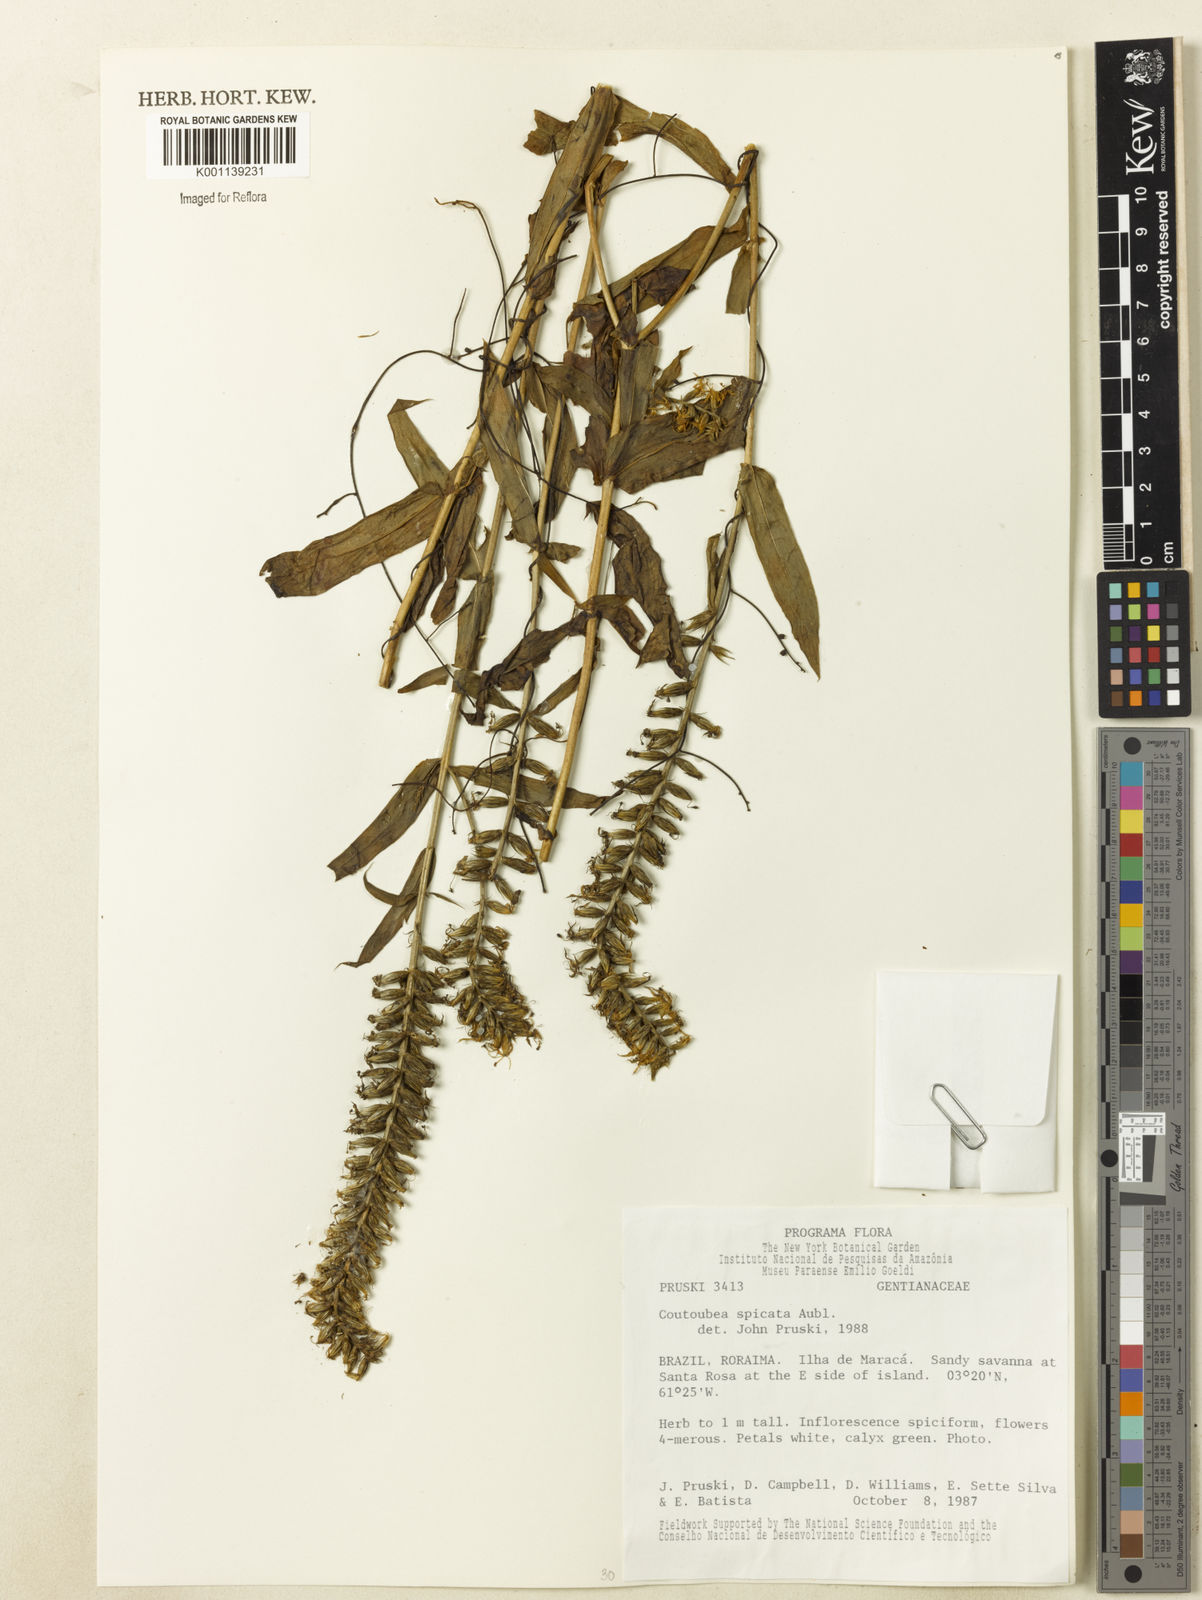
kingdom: Plantae
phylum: Tracheophyta
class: Magnoliopsida
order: Gentianales
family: Gentianaceae
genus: Coutoubea
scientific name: Coutoubea spicata
